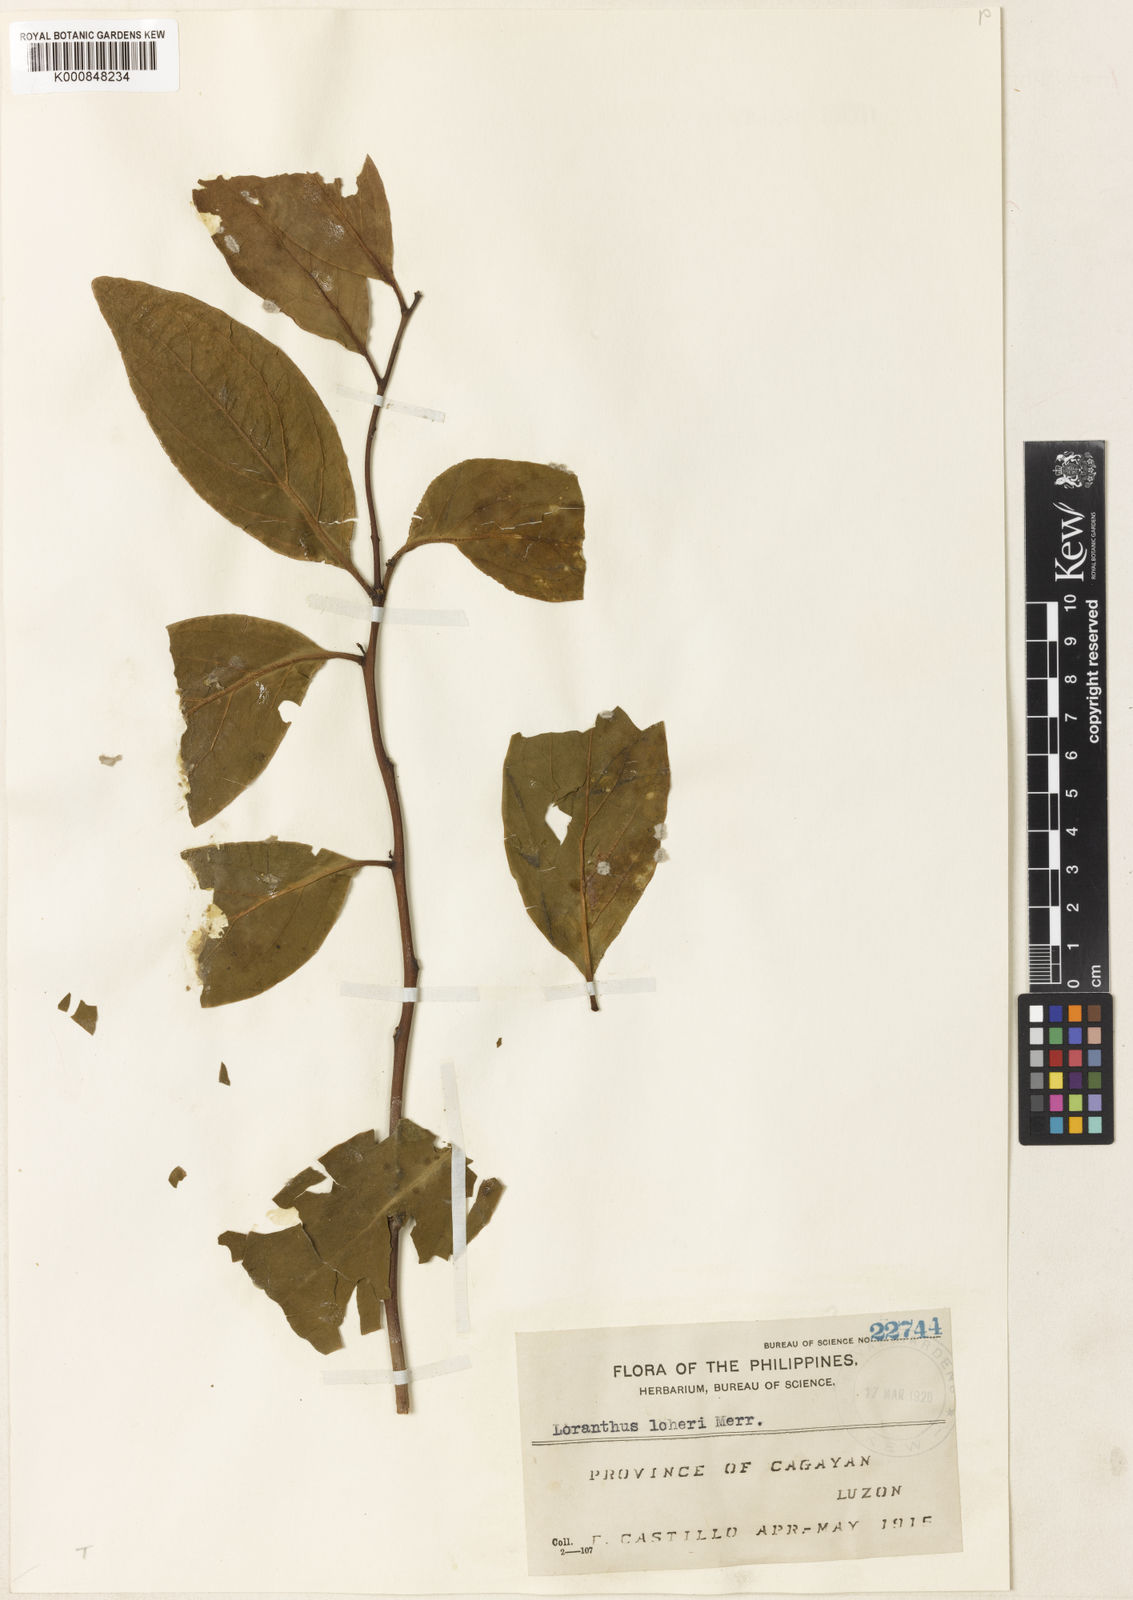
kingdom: Plantae
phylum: Tracheophyta
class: Magnoliopsida
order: Santalales
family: Loranthaceae
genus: Dendrophthoe
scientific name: Dendrophthoe clementis
